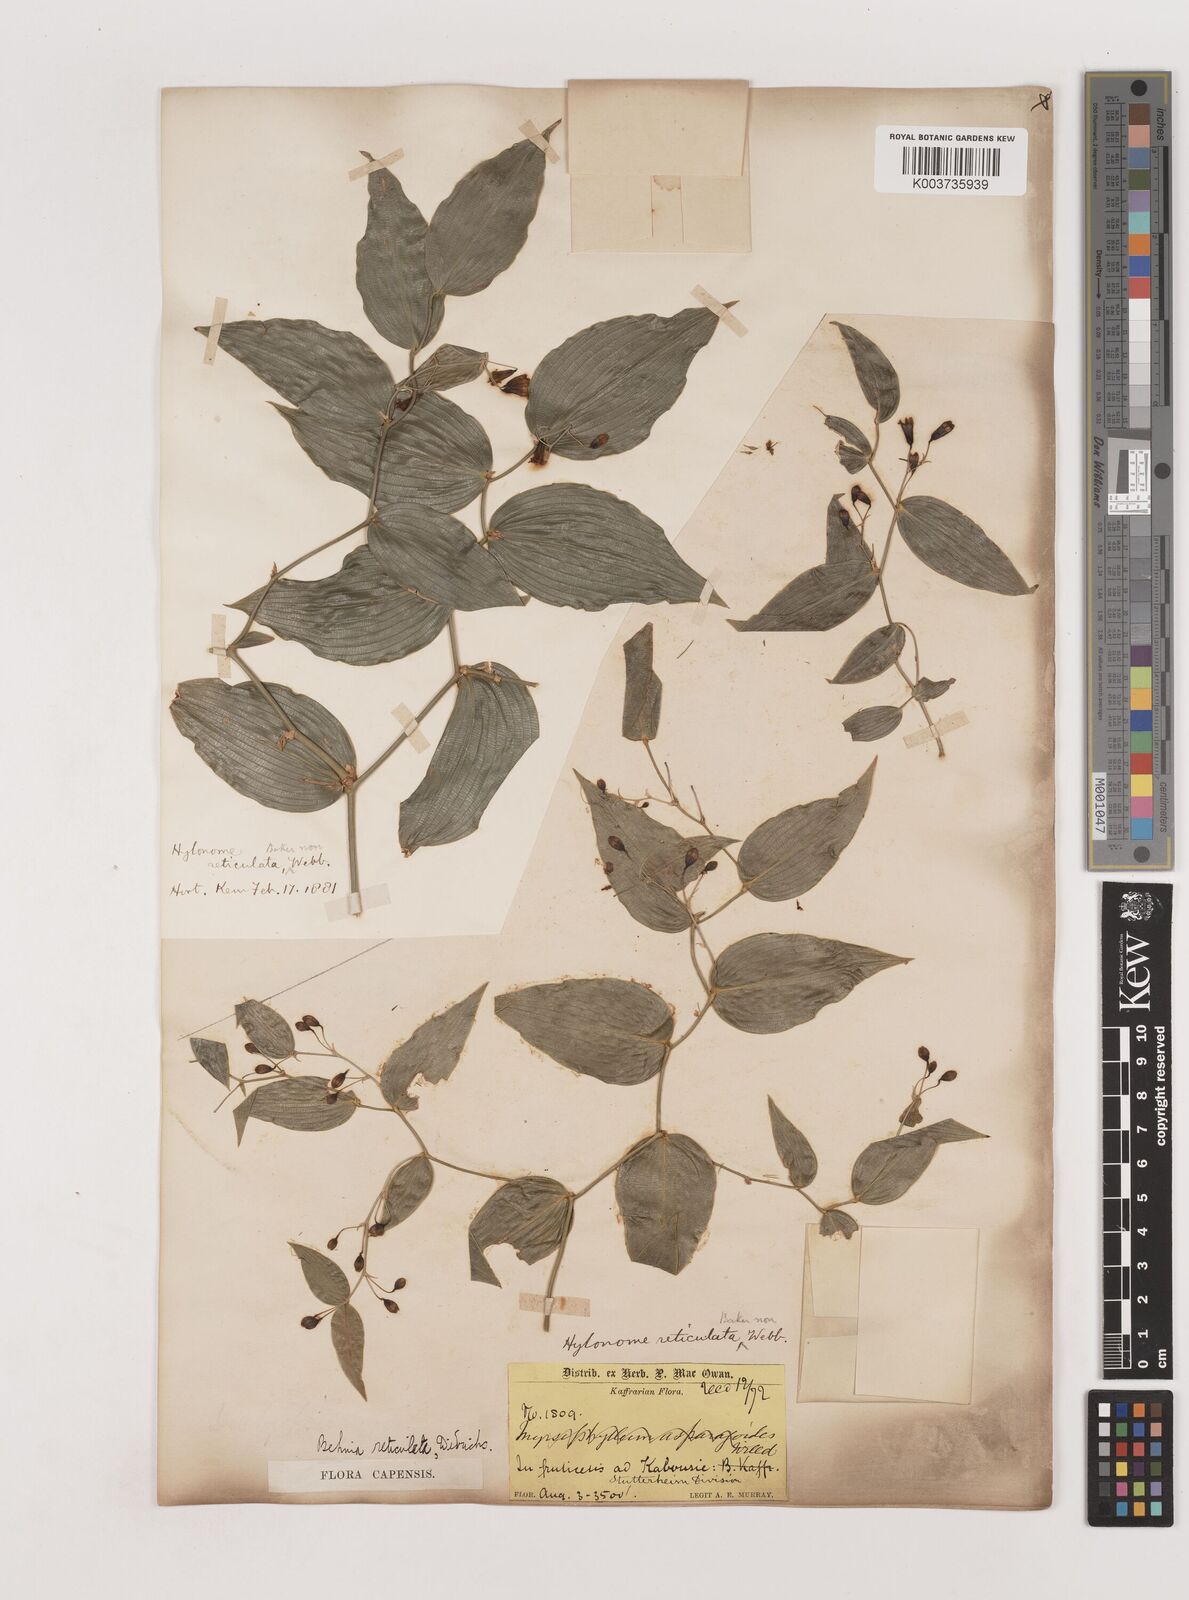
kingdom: Plantae
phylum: Tracheophyta
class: Liliopsida
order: Asparagales
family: Asparagaceae
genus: Behnia
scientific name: Behnia reticulata
